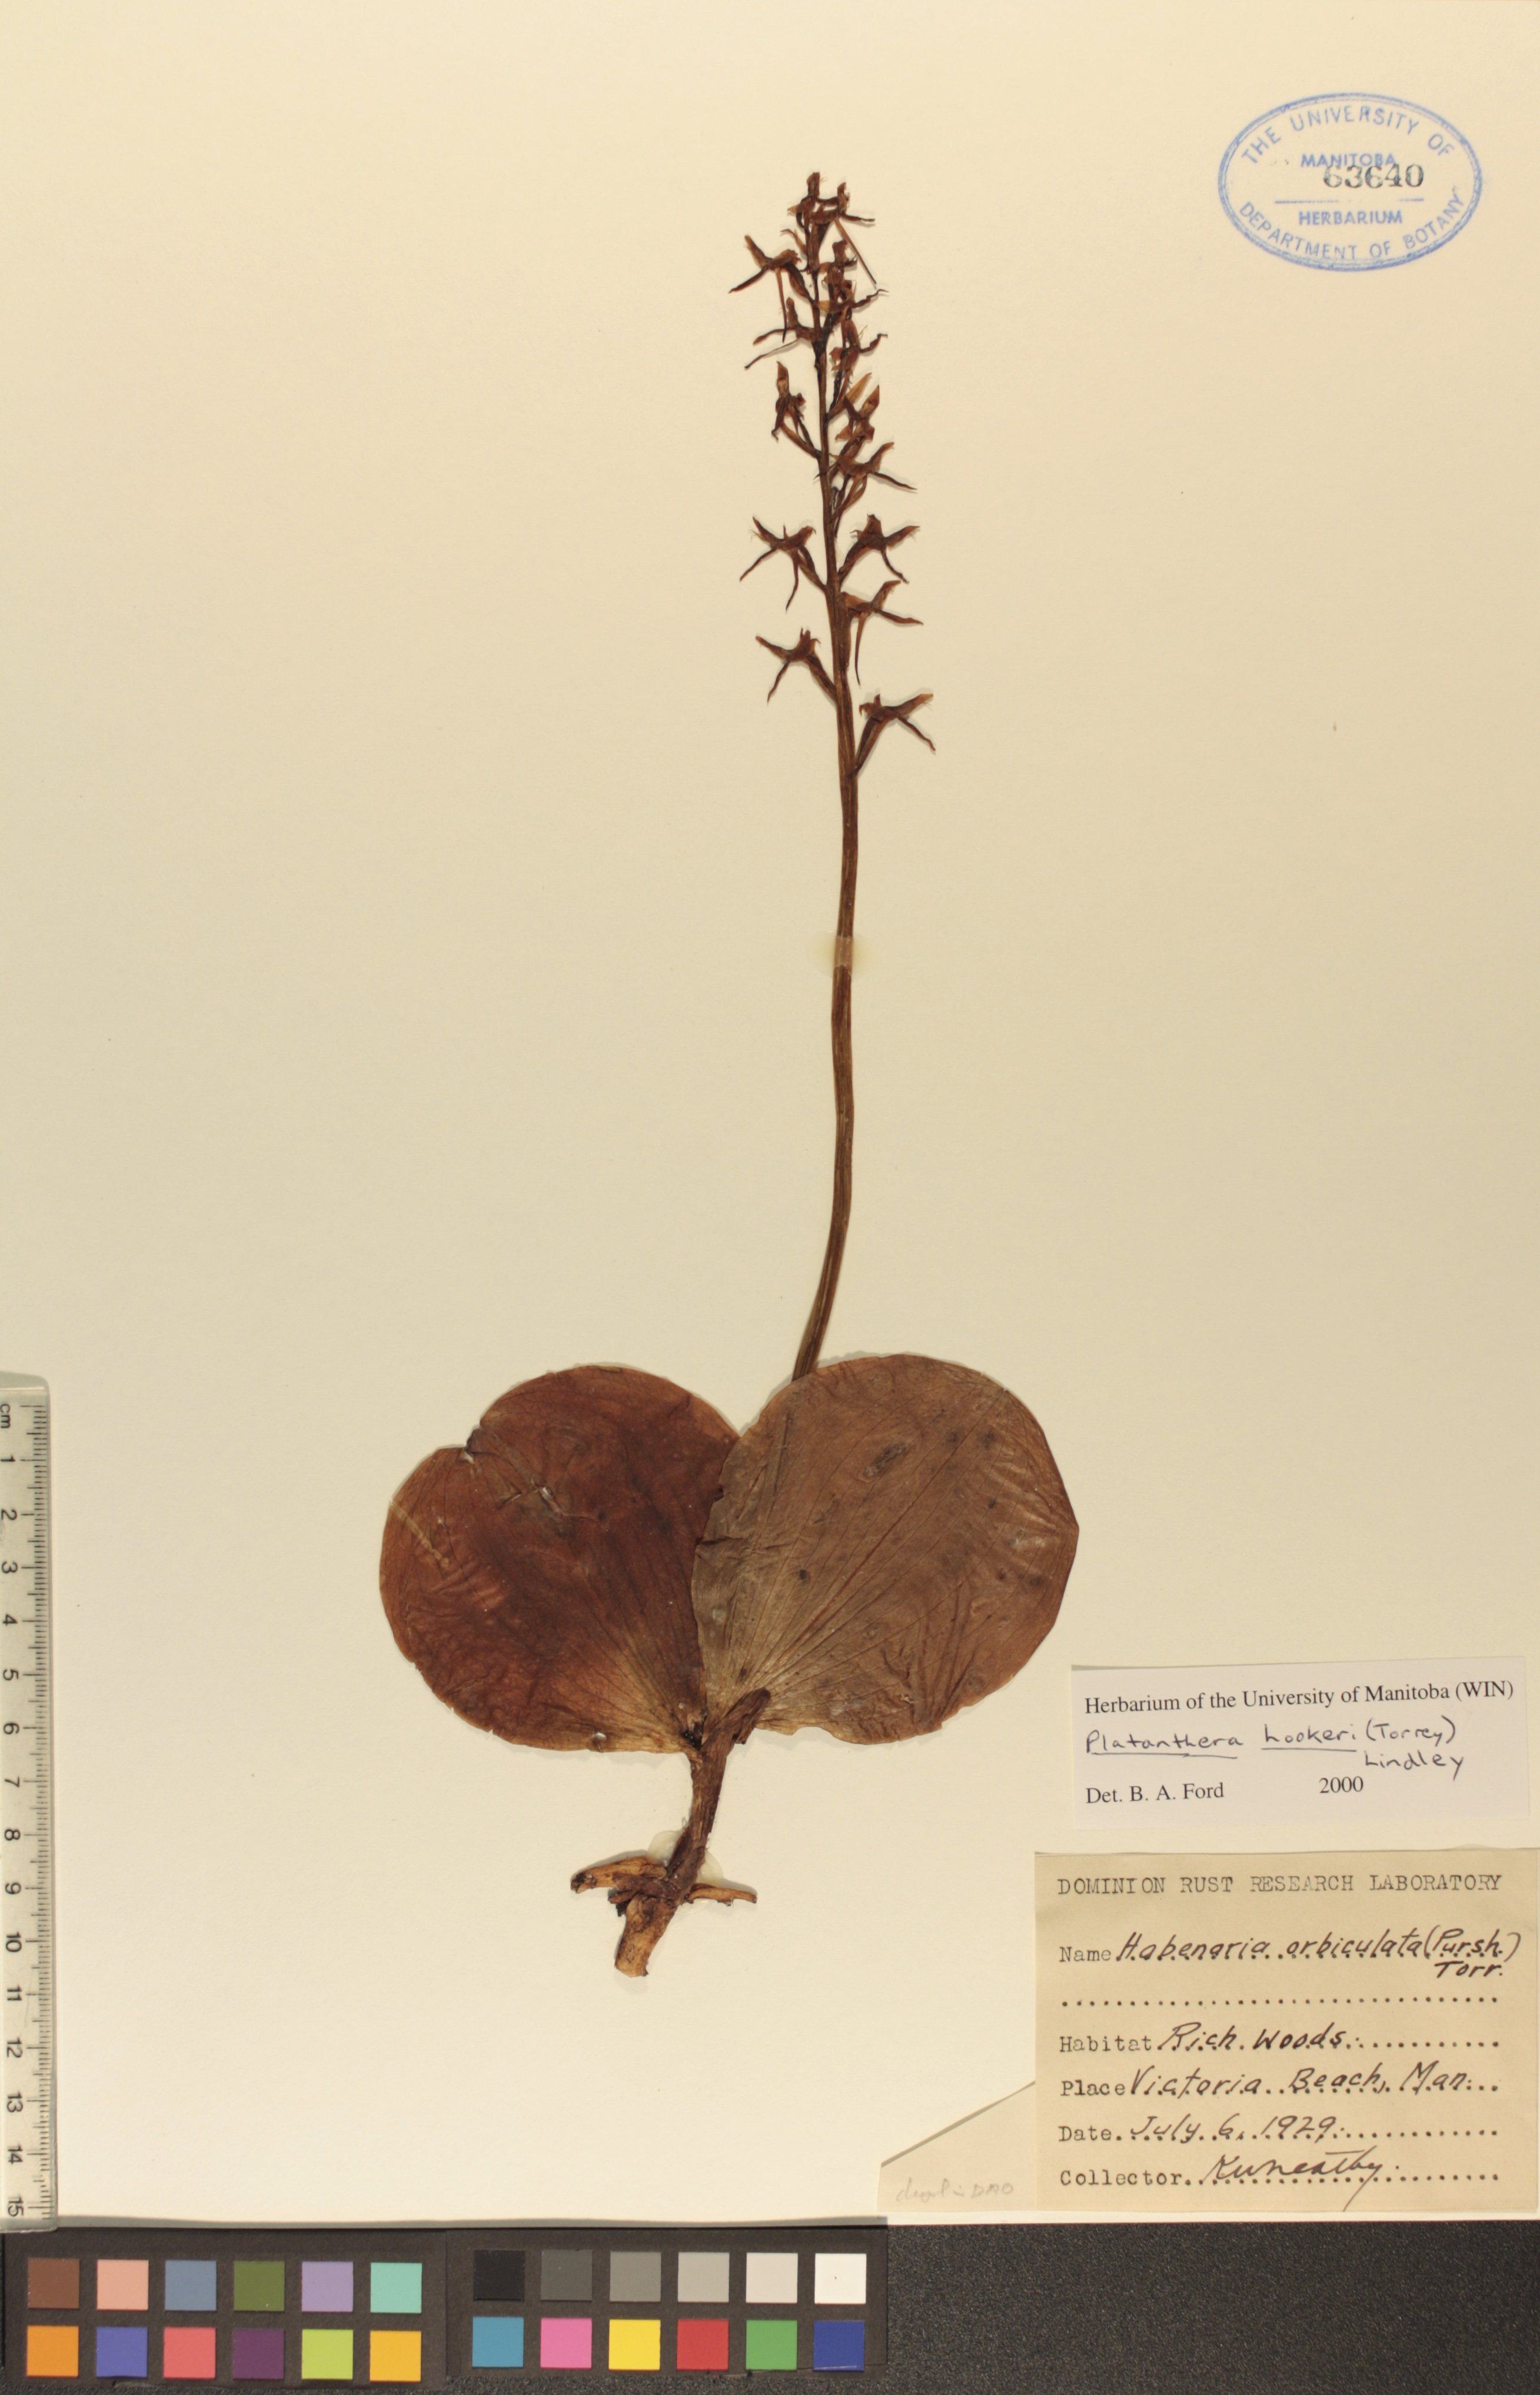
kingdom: Plantae
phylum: Tracheophyta
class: Liliopsida
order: Asparagales
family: Orchidaceae
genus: Platanthera
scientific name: Platanthera hookeri
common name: Hooker's orchid
